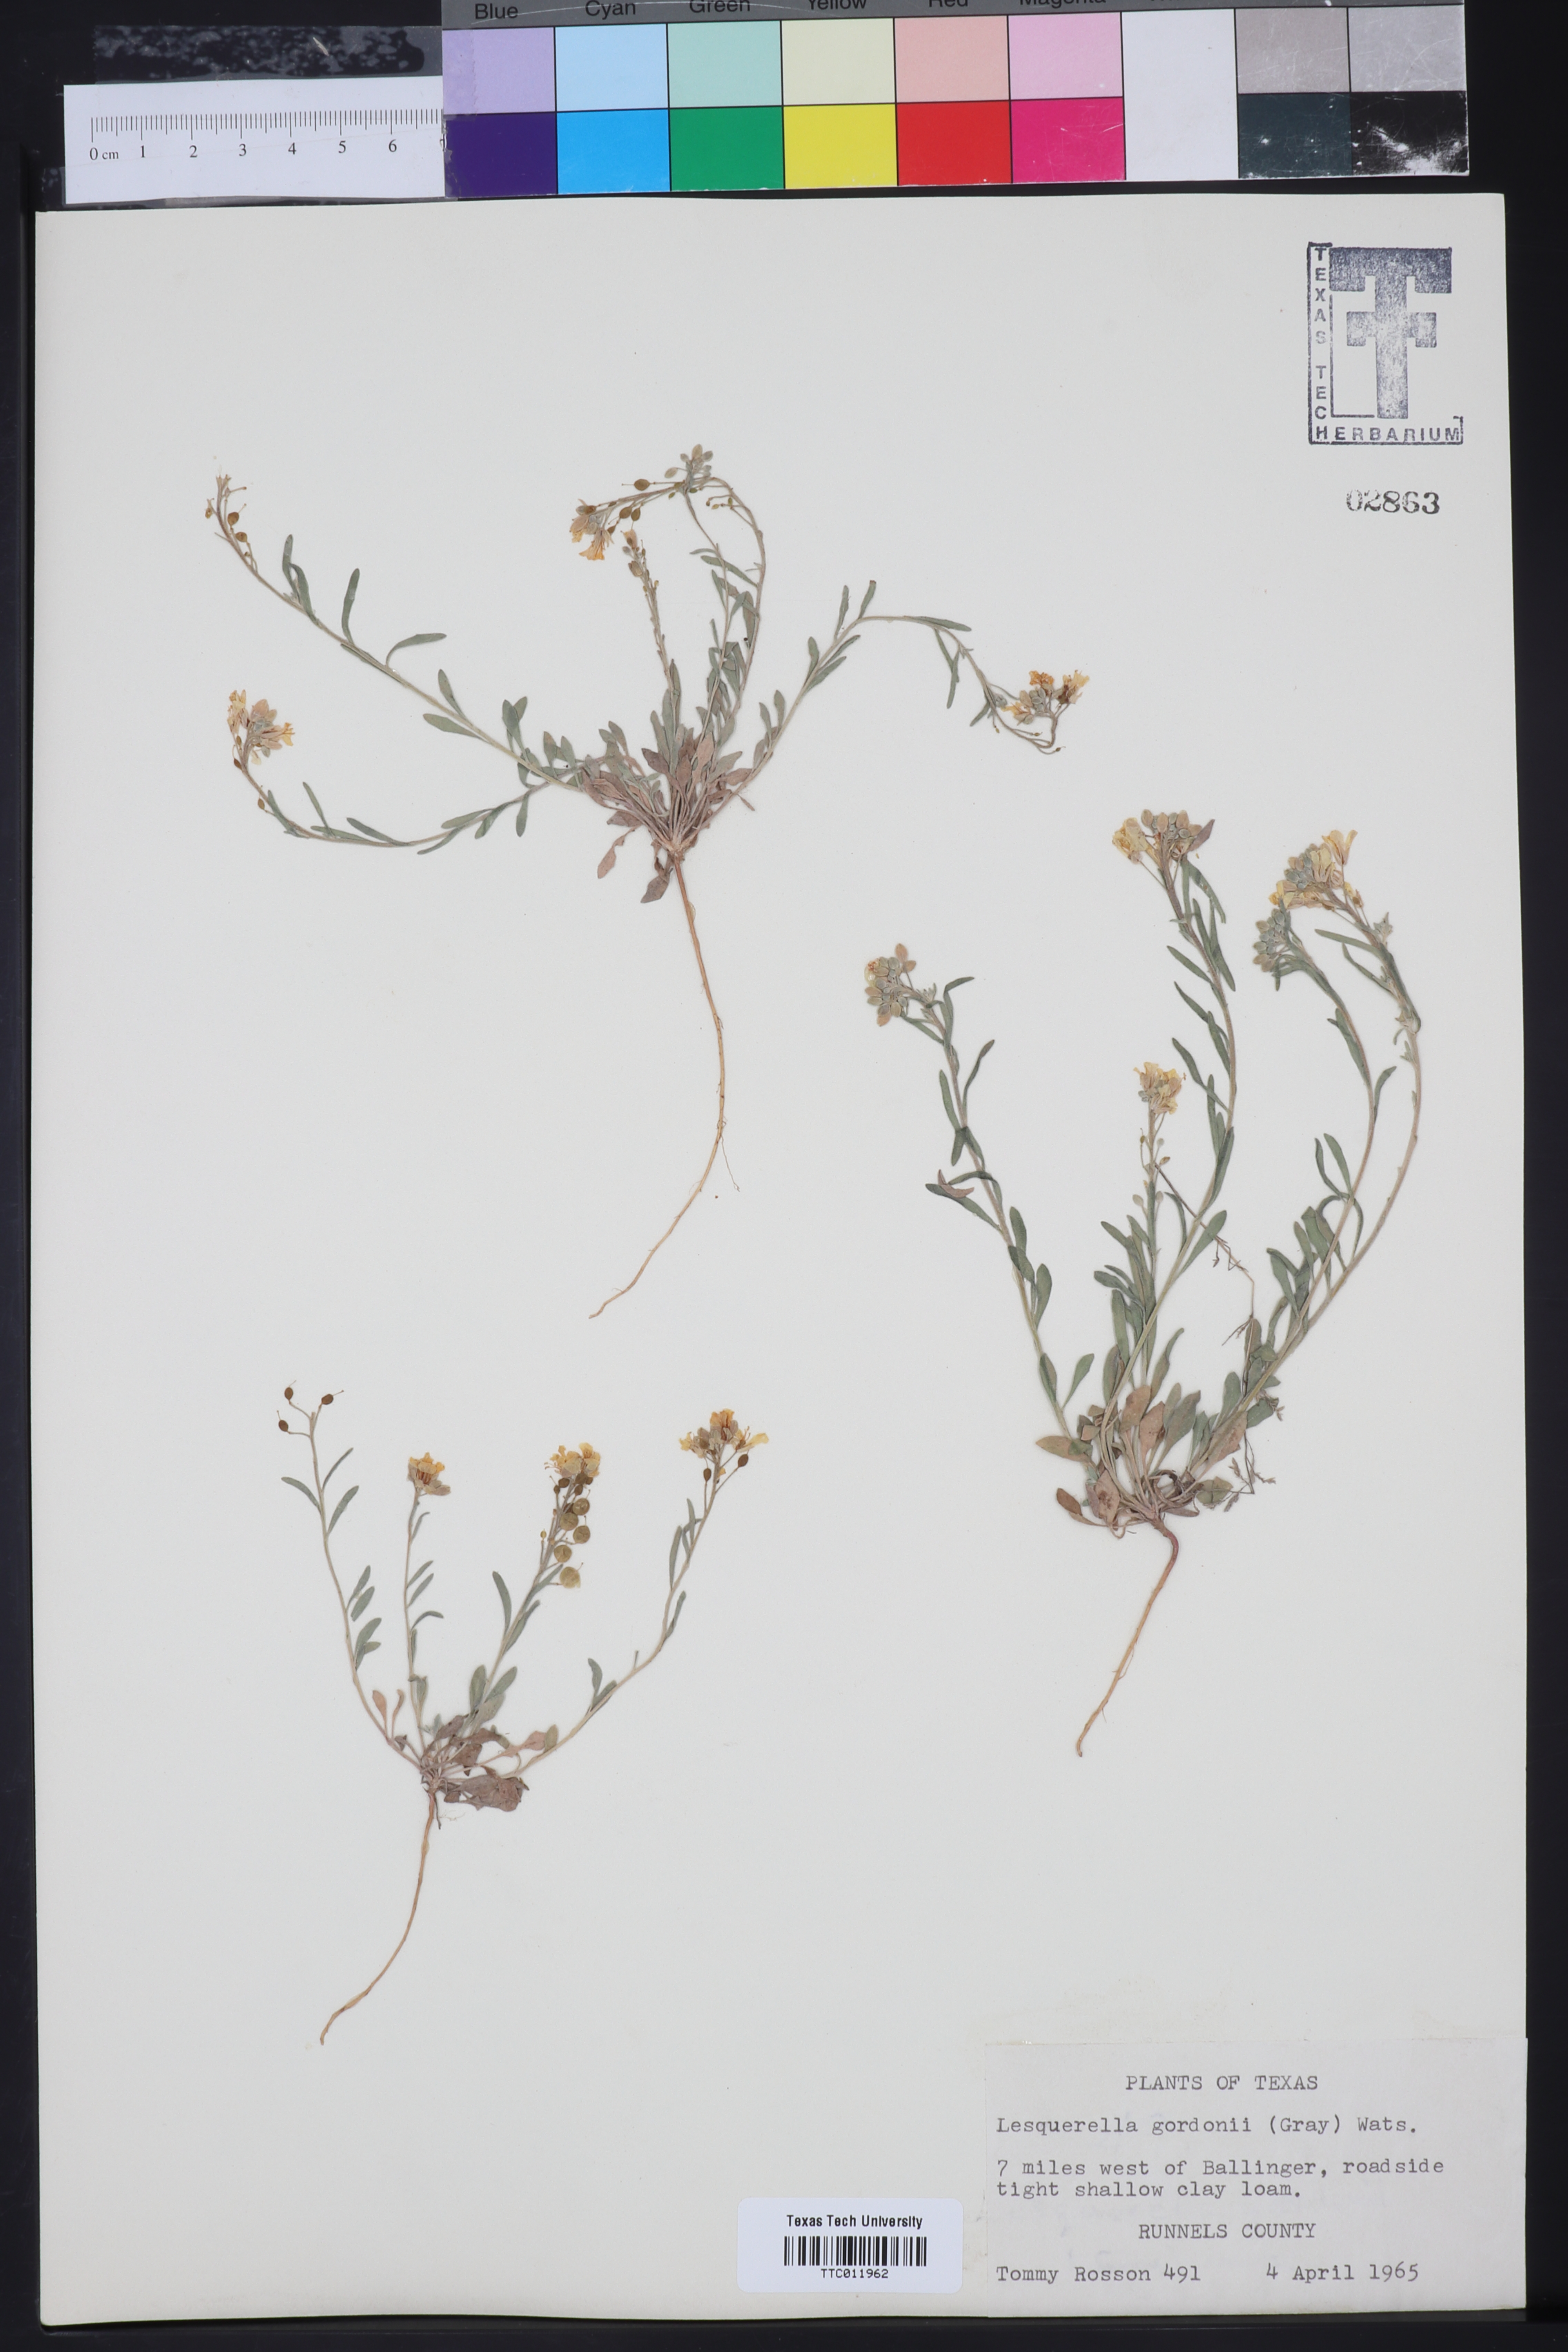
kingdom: Plantae
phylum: Tracheophyta
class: Magnoliopsida
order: Brassicales
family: Brassicaceae
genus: Physaria
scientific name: Physaria gordonii
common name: Gordon's bladderpod
